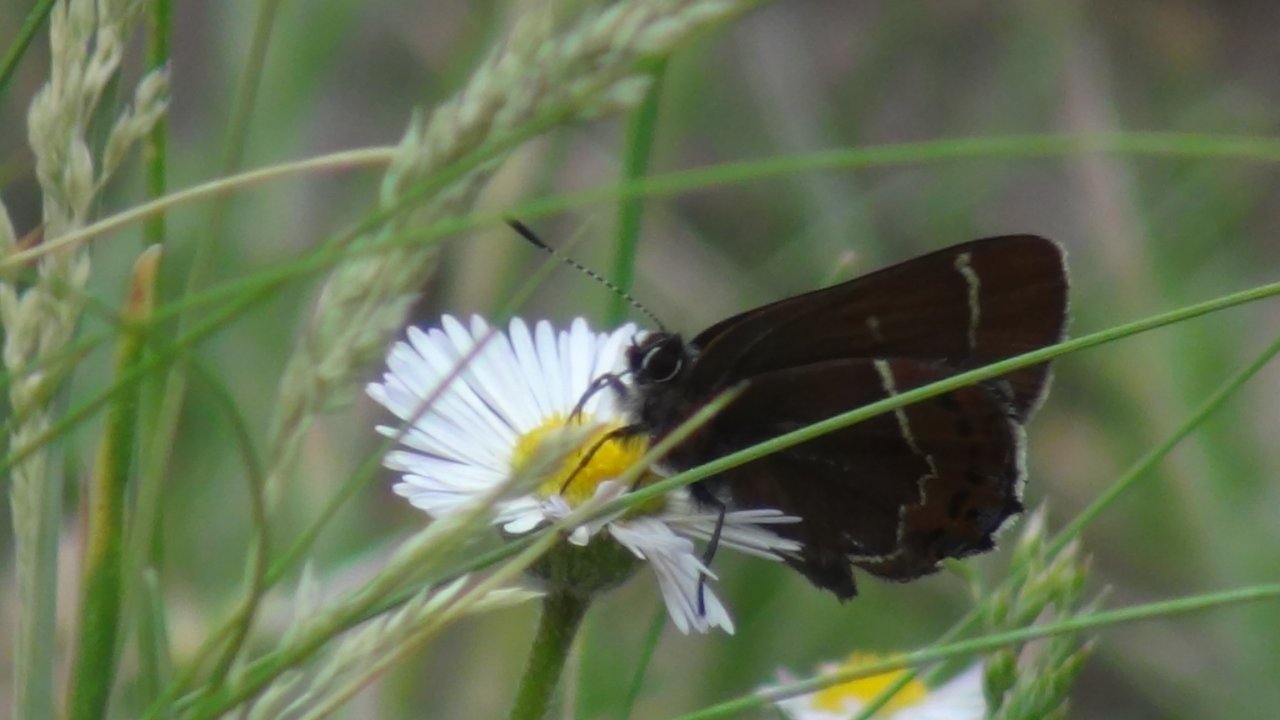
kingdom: Animalia
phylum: Arthropoda
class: Insecta
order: Lepidoptera
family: Lycaenidae
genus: Mitoura
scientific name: Mitoura spinetorum
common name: Thicket Hairstreak
